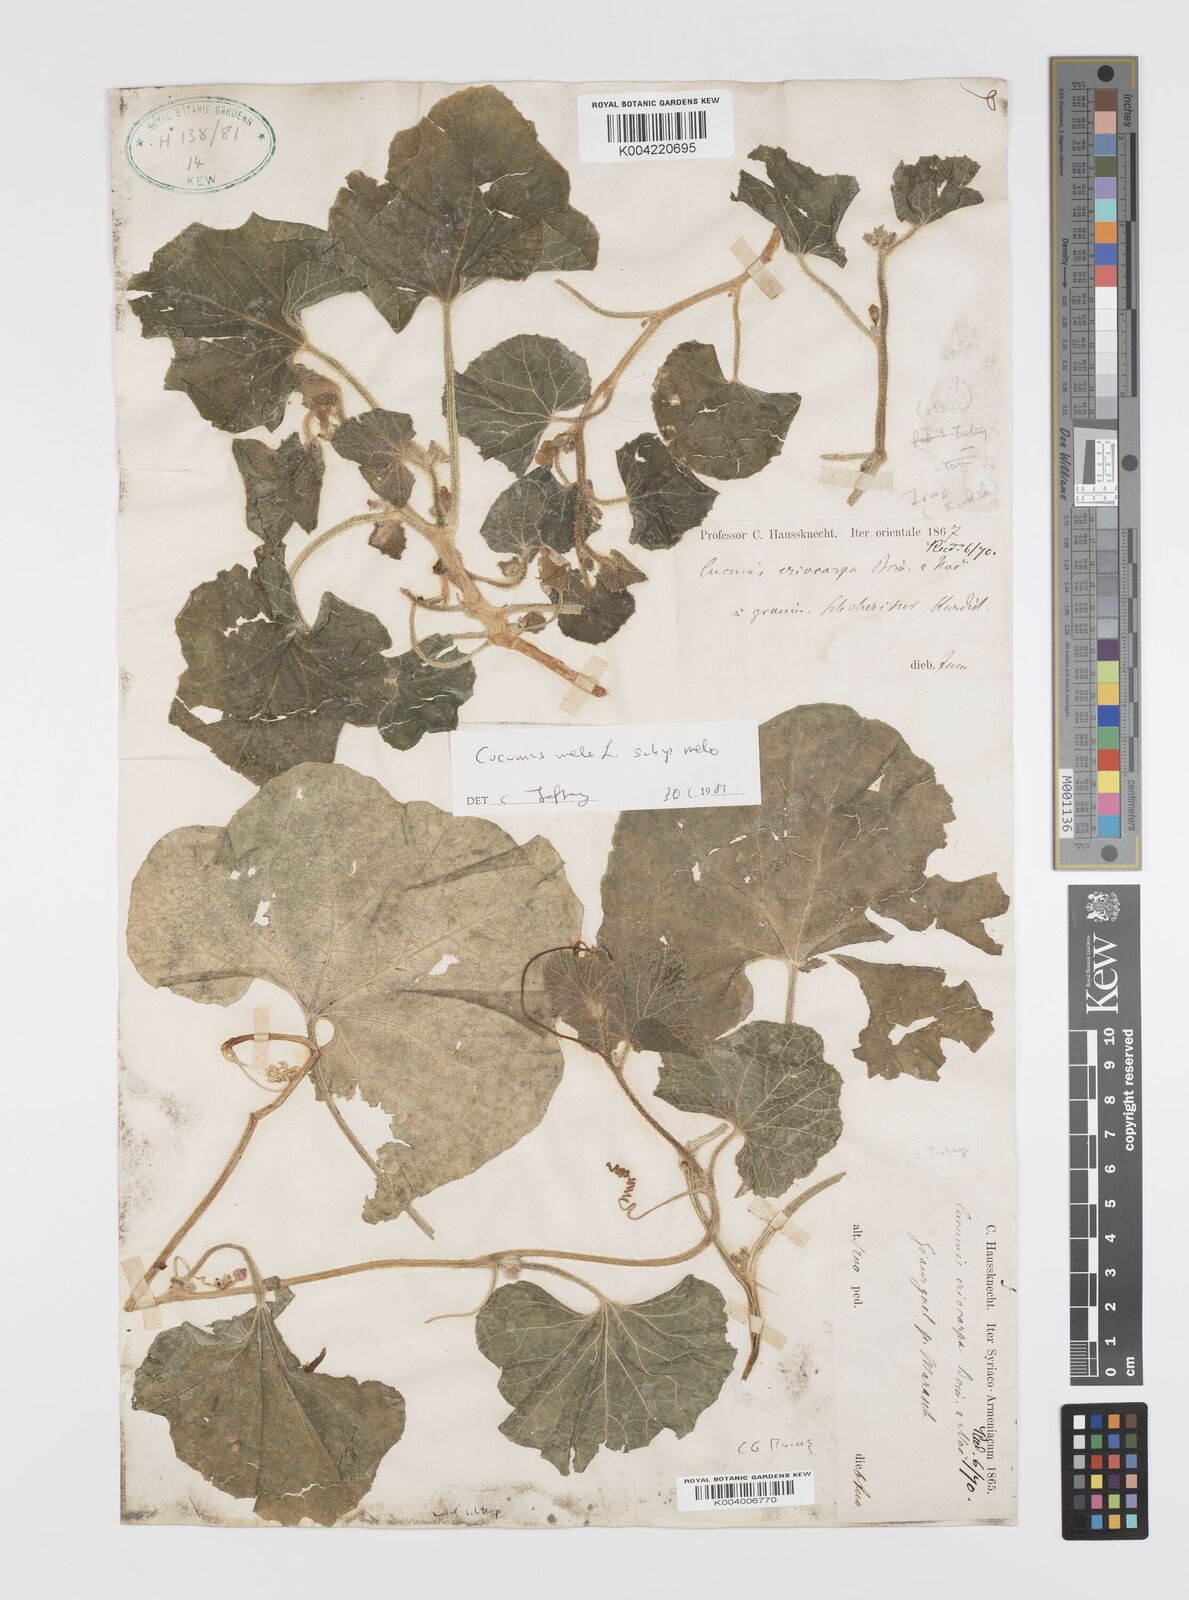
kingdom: Plantae
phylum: Tracheophyta
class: Magnoliopsida
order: Cucurbitales
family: Cucurbitaceae
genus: Cucumis
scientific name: Cucumis melo
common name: Melon
